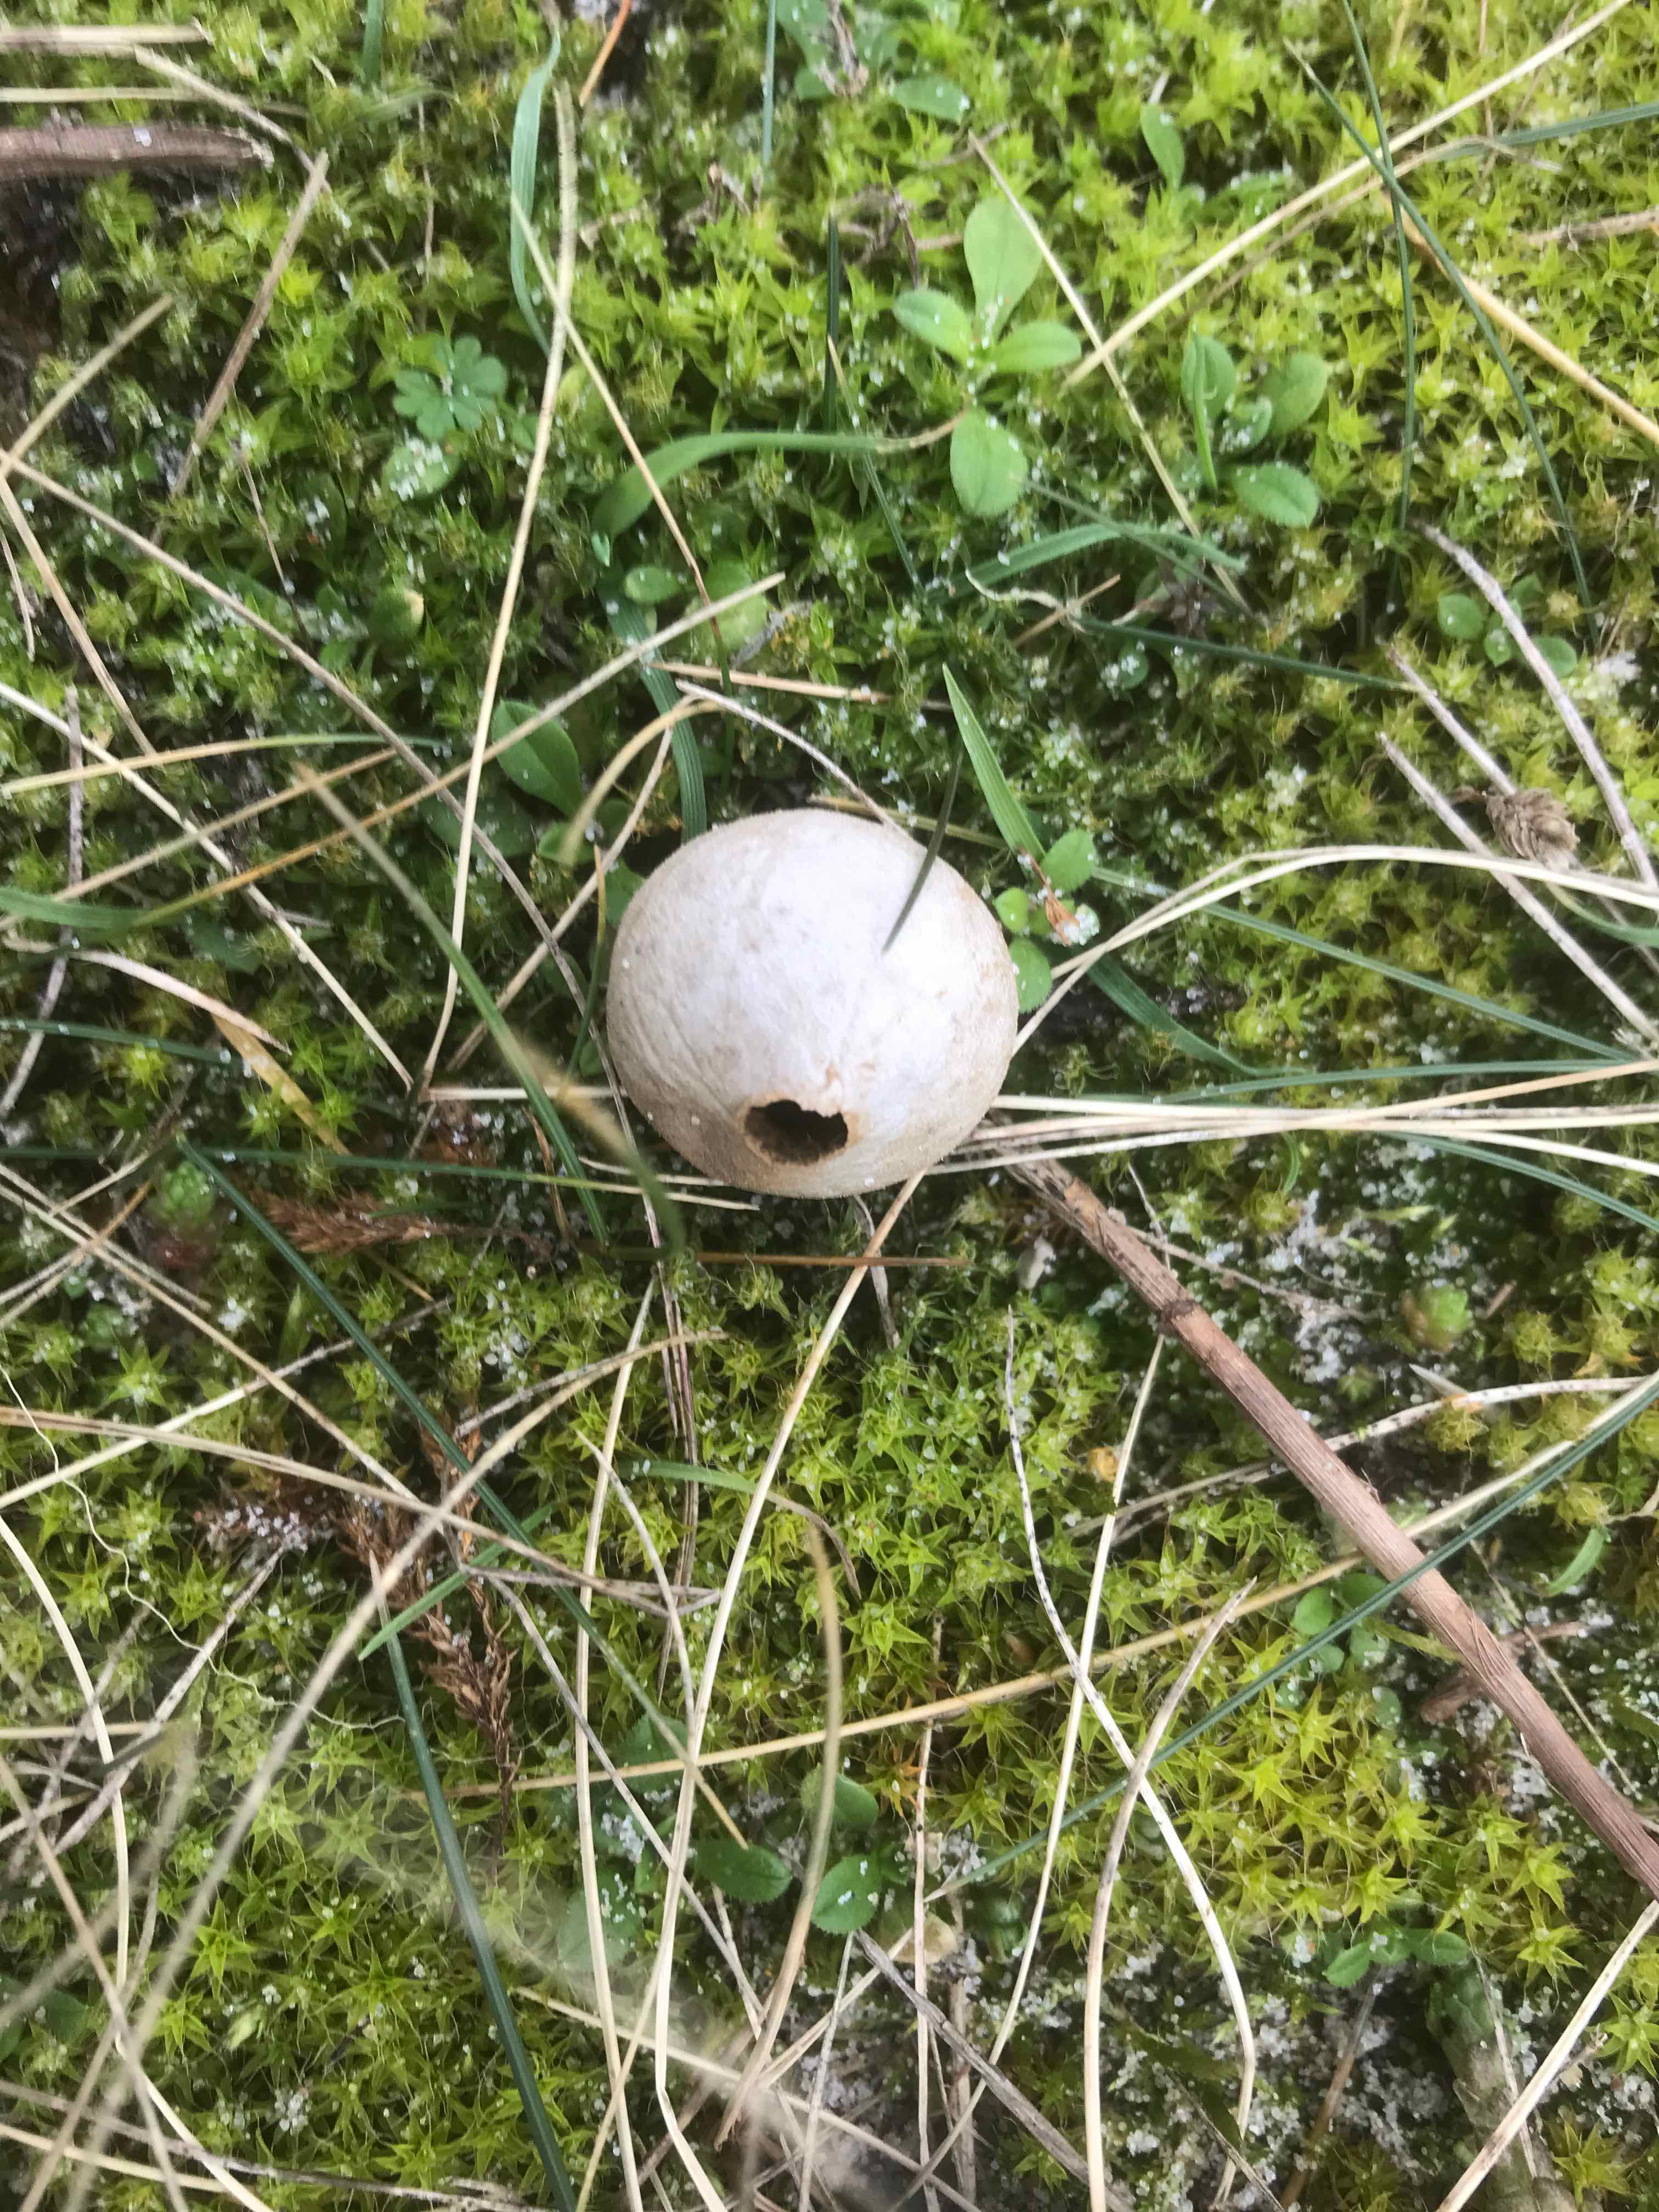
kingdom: Fungi
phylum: Basidiomycota
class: Agaricomycetes
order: Agaricales
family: Lycoperdaceae
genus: Lycoperdon
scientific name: Lycoperdon lividum
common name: mark-støvbold
